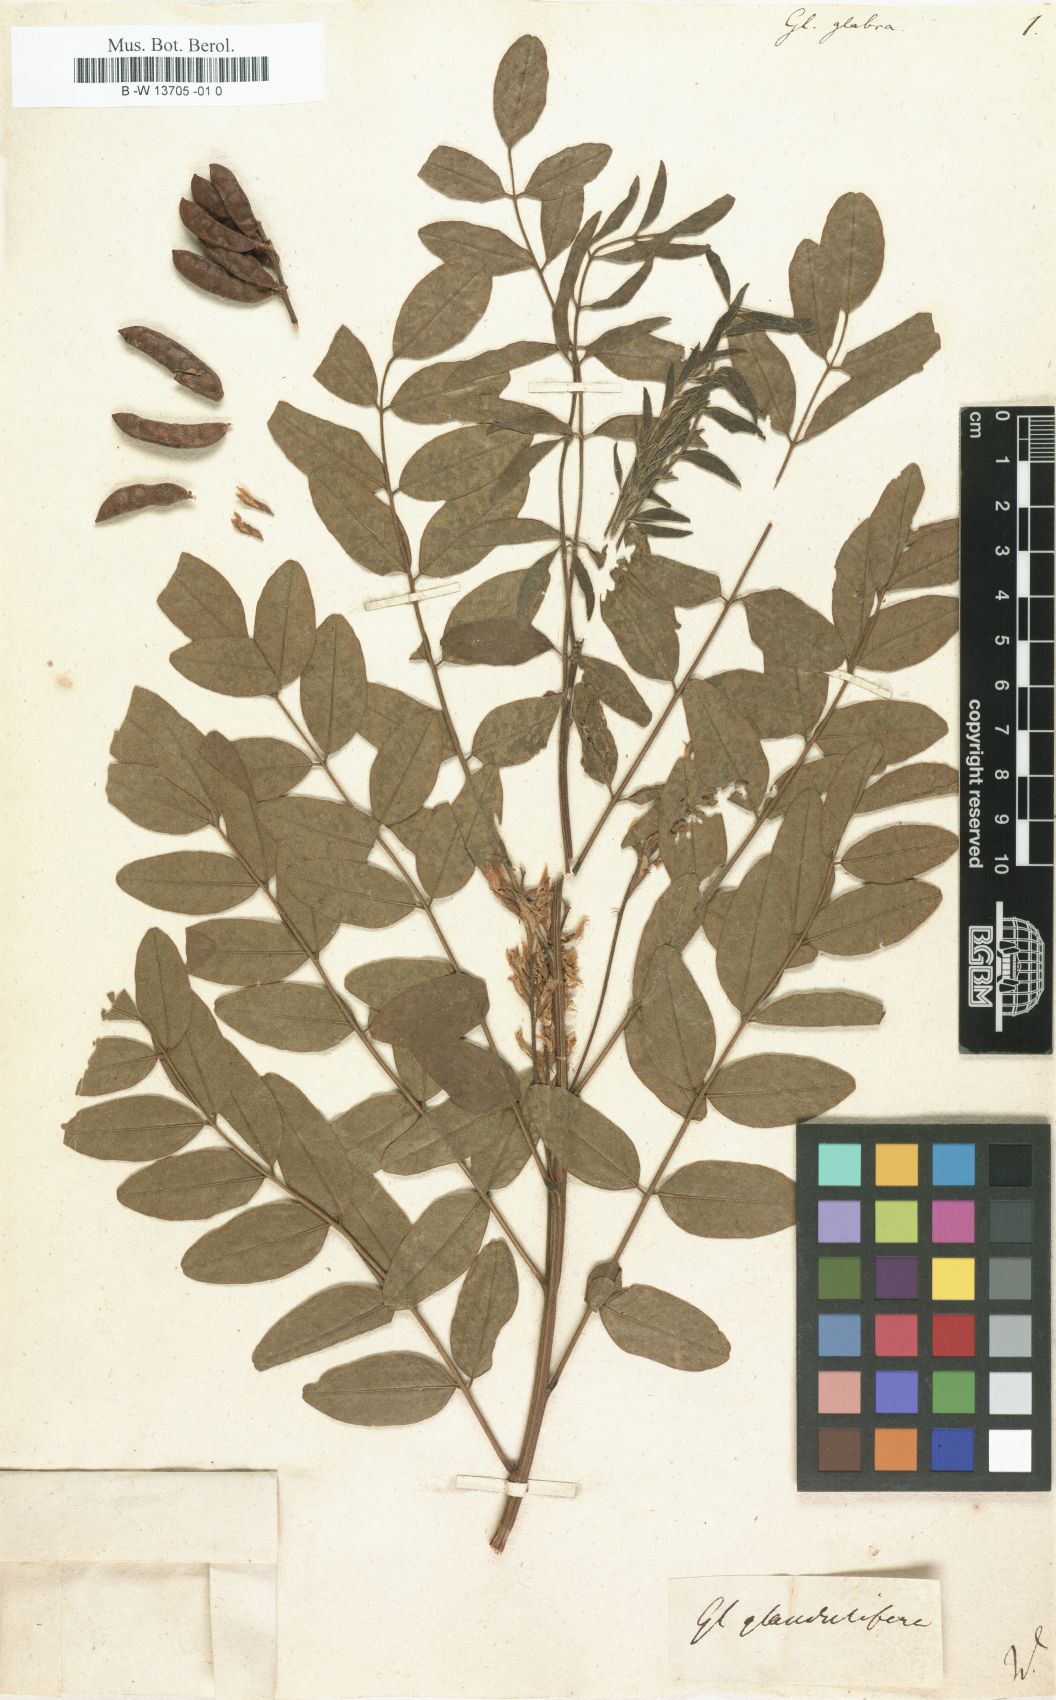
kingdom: Plantae
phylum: Tracheophyta
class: Magnoliopsida
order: Fabales
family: Fabaceae
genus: Glycyrrhiza
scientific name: Glycyrrhiza glabra
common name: Liquorice
